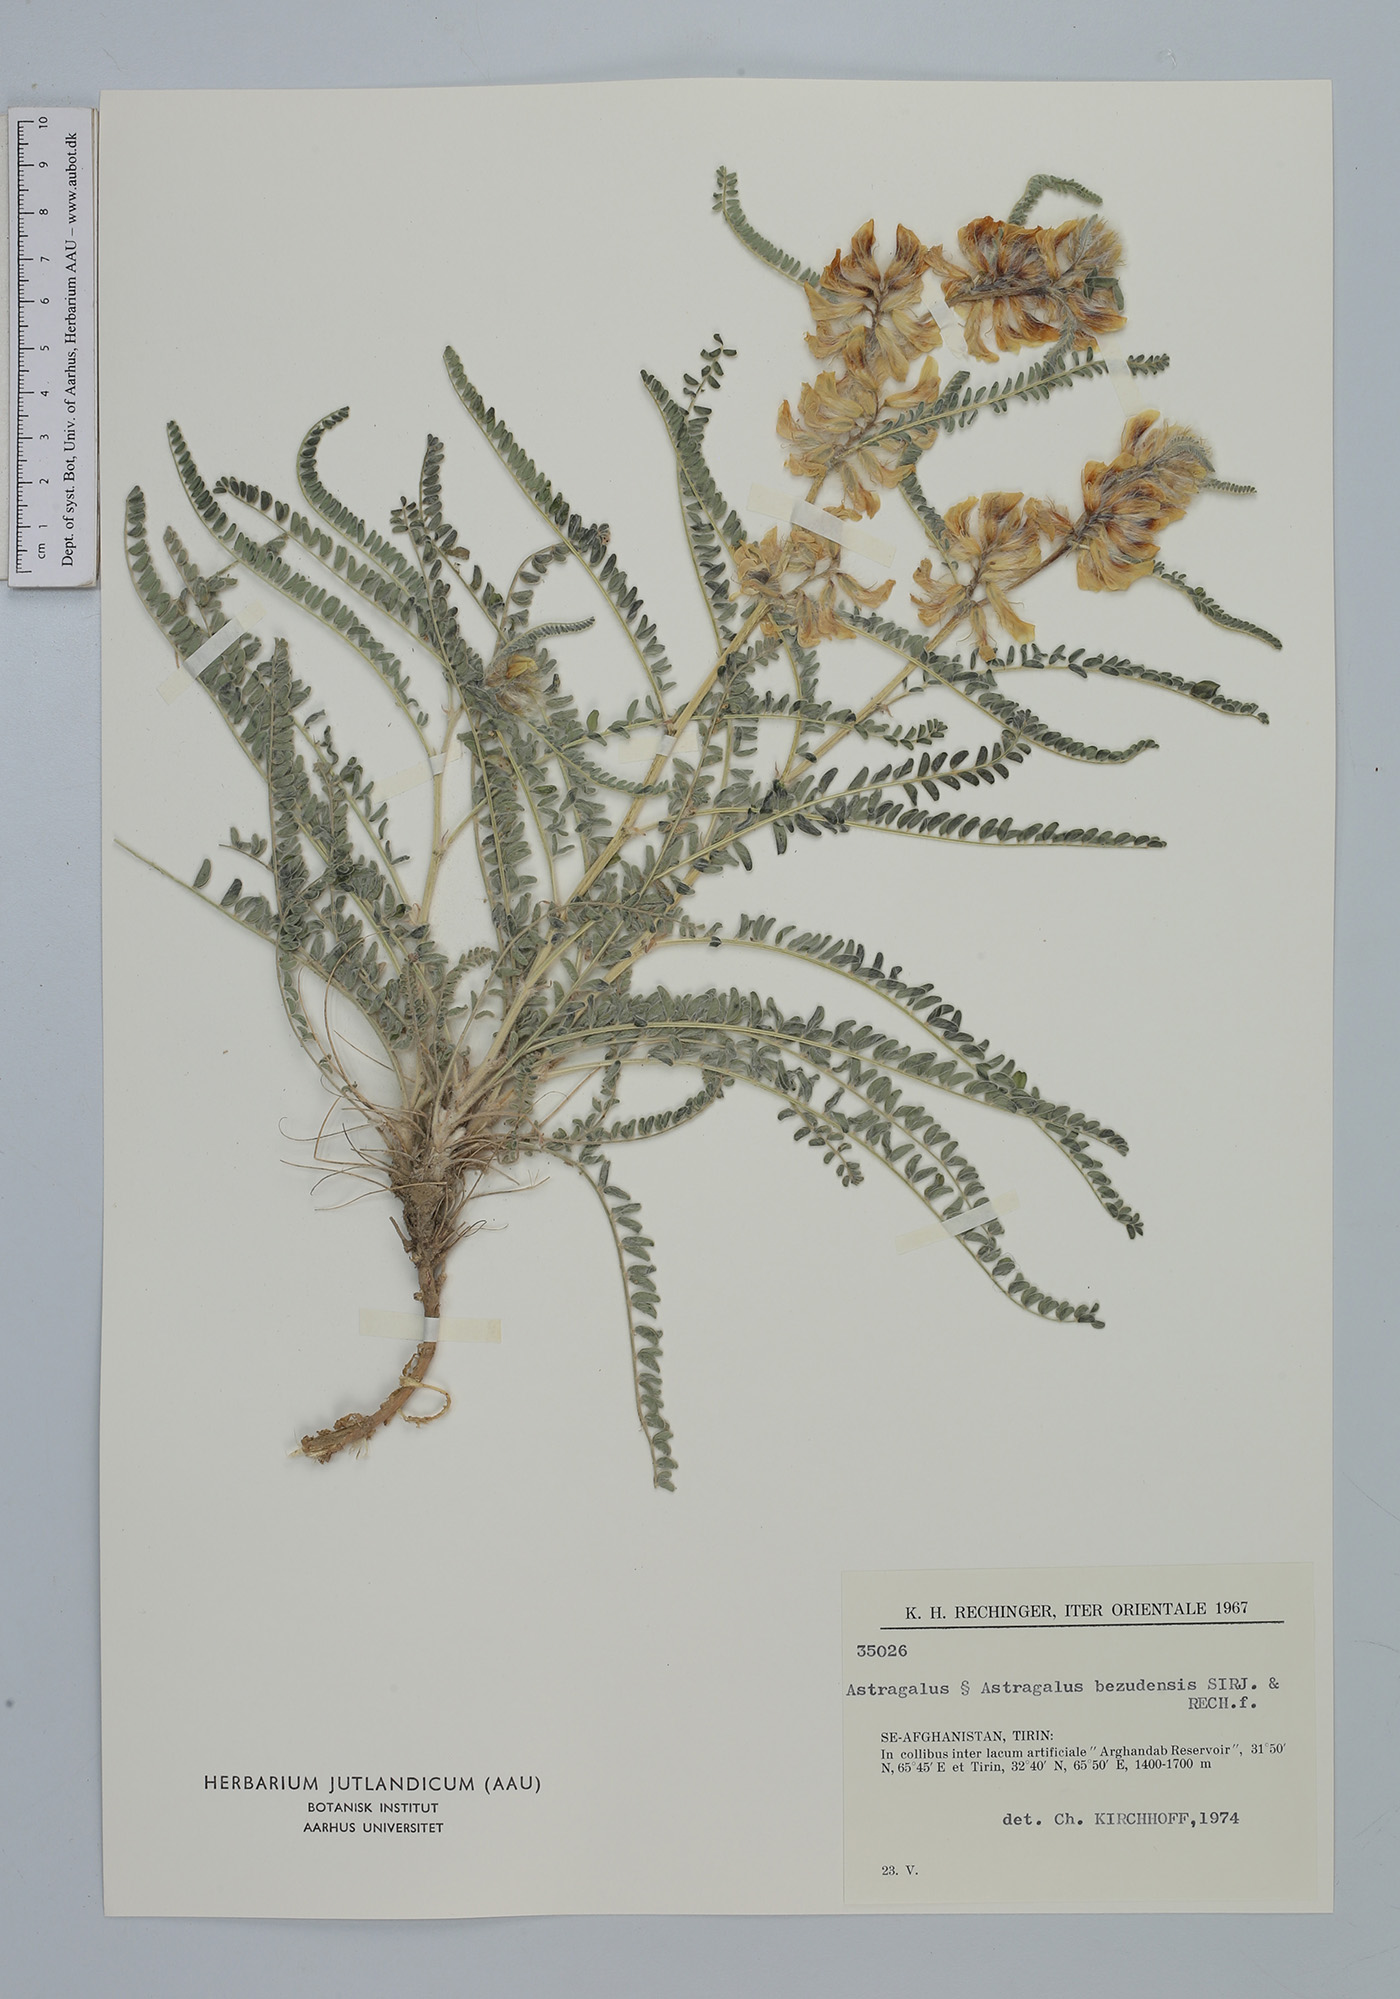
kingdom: Plantae
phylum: Tracheophyta
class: Magnoliopsida
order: Fabales
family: Fabaceae
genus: Astragalus
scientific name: Astragalus bezudensis
